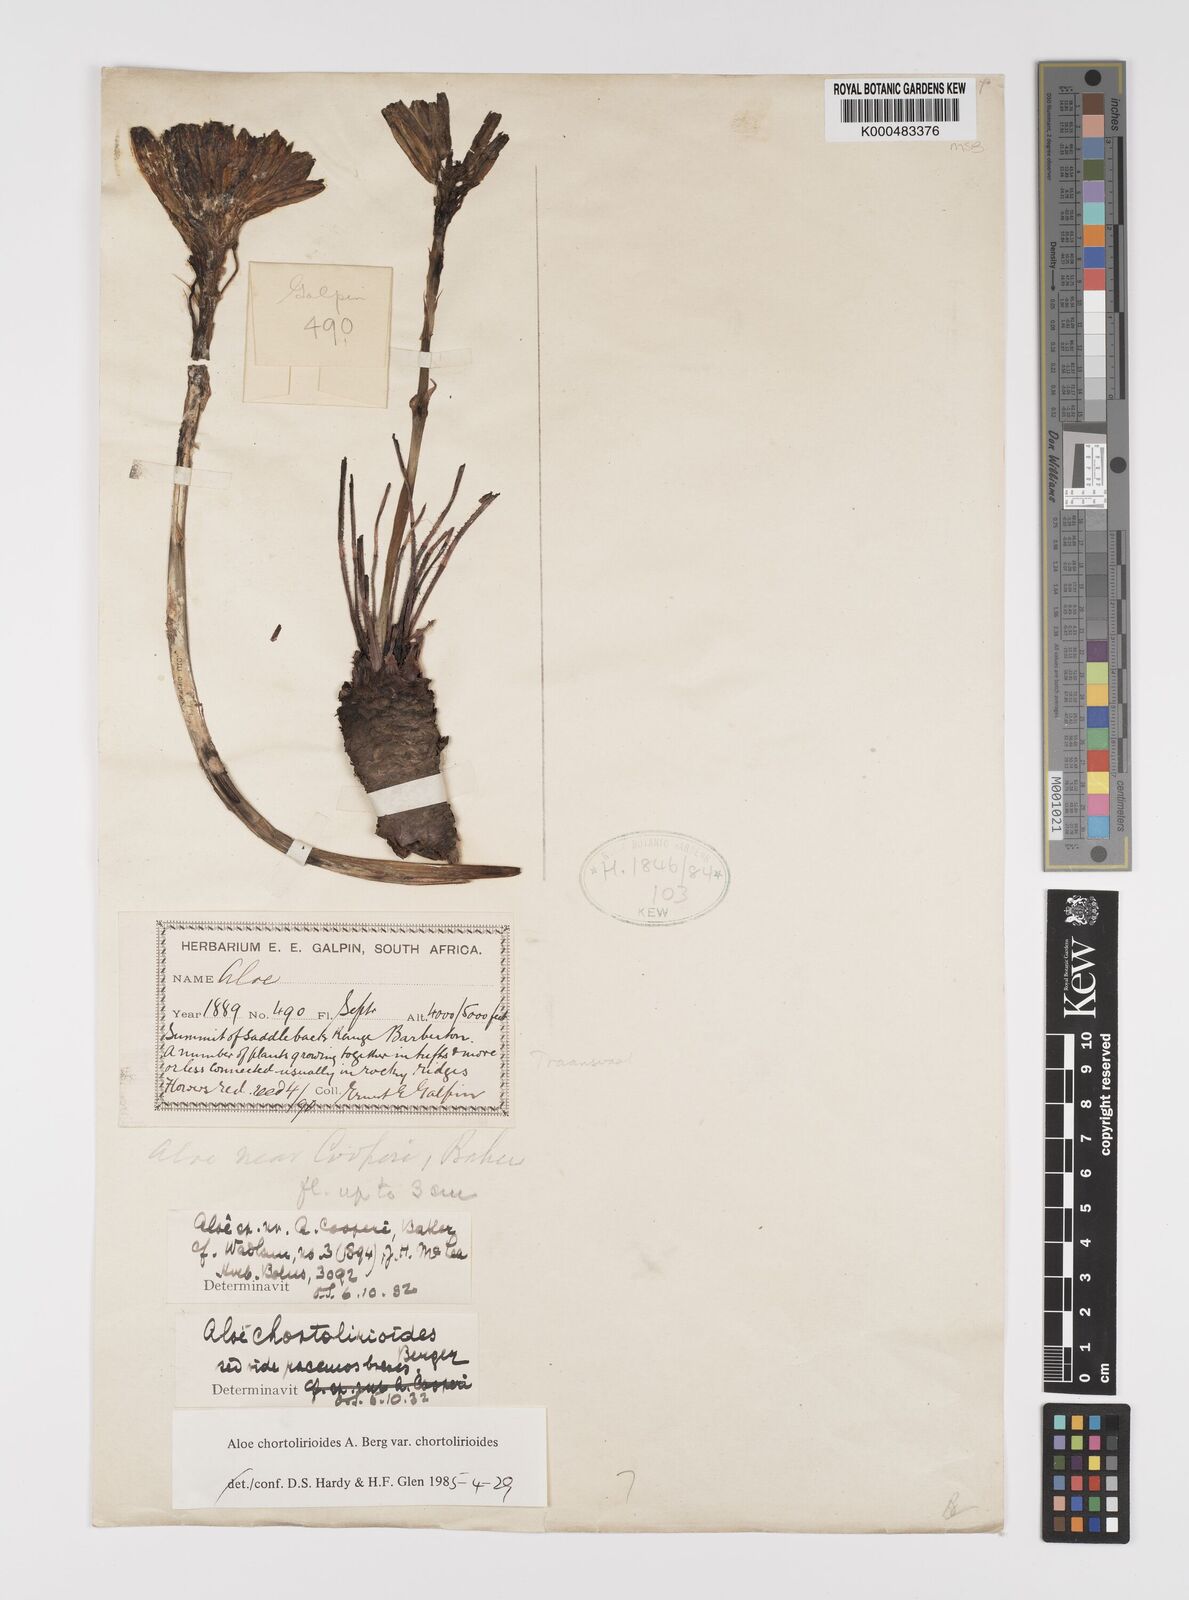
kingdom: Plantae
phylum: Tracheophyta
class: Liliopsida
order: Asparagales
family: Asphodelaceae
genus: Aloe
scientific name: Aloe chortolirioides
